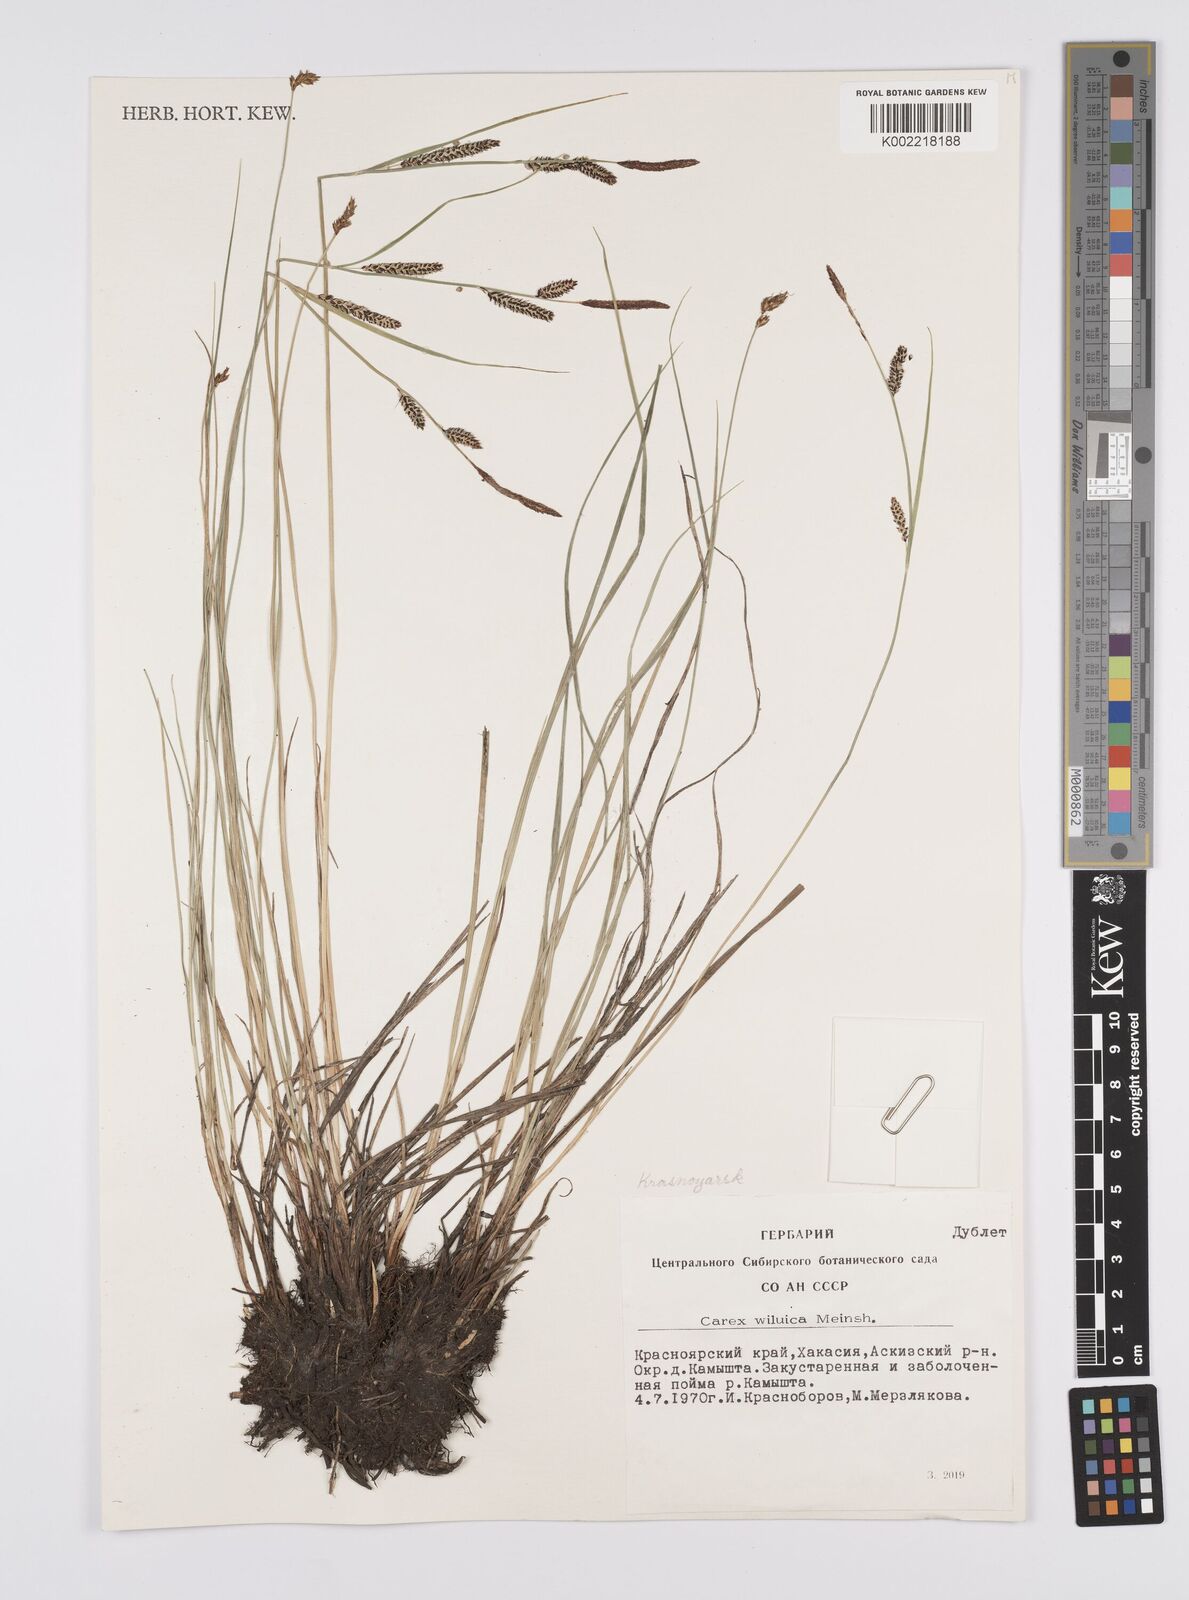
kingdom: Plantae
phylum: Tracheophyta
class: Liliopsida
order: Poales
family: Cyperaceae
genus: Carex
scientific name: Carex nigra
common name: Common sedge
